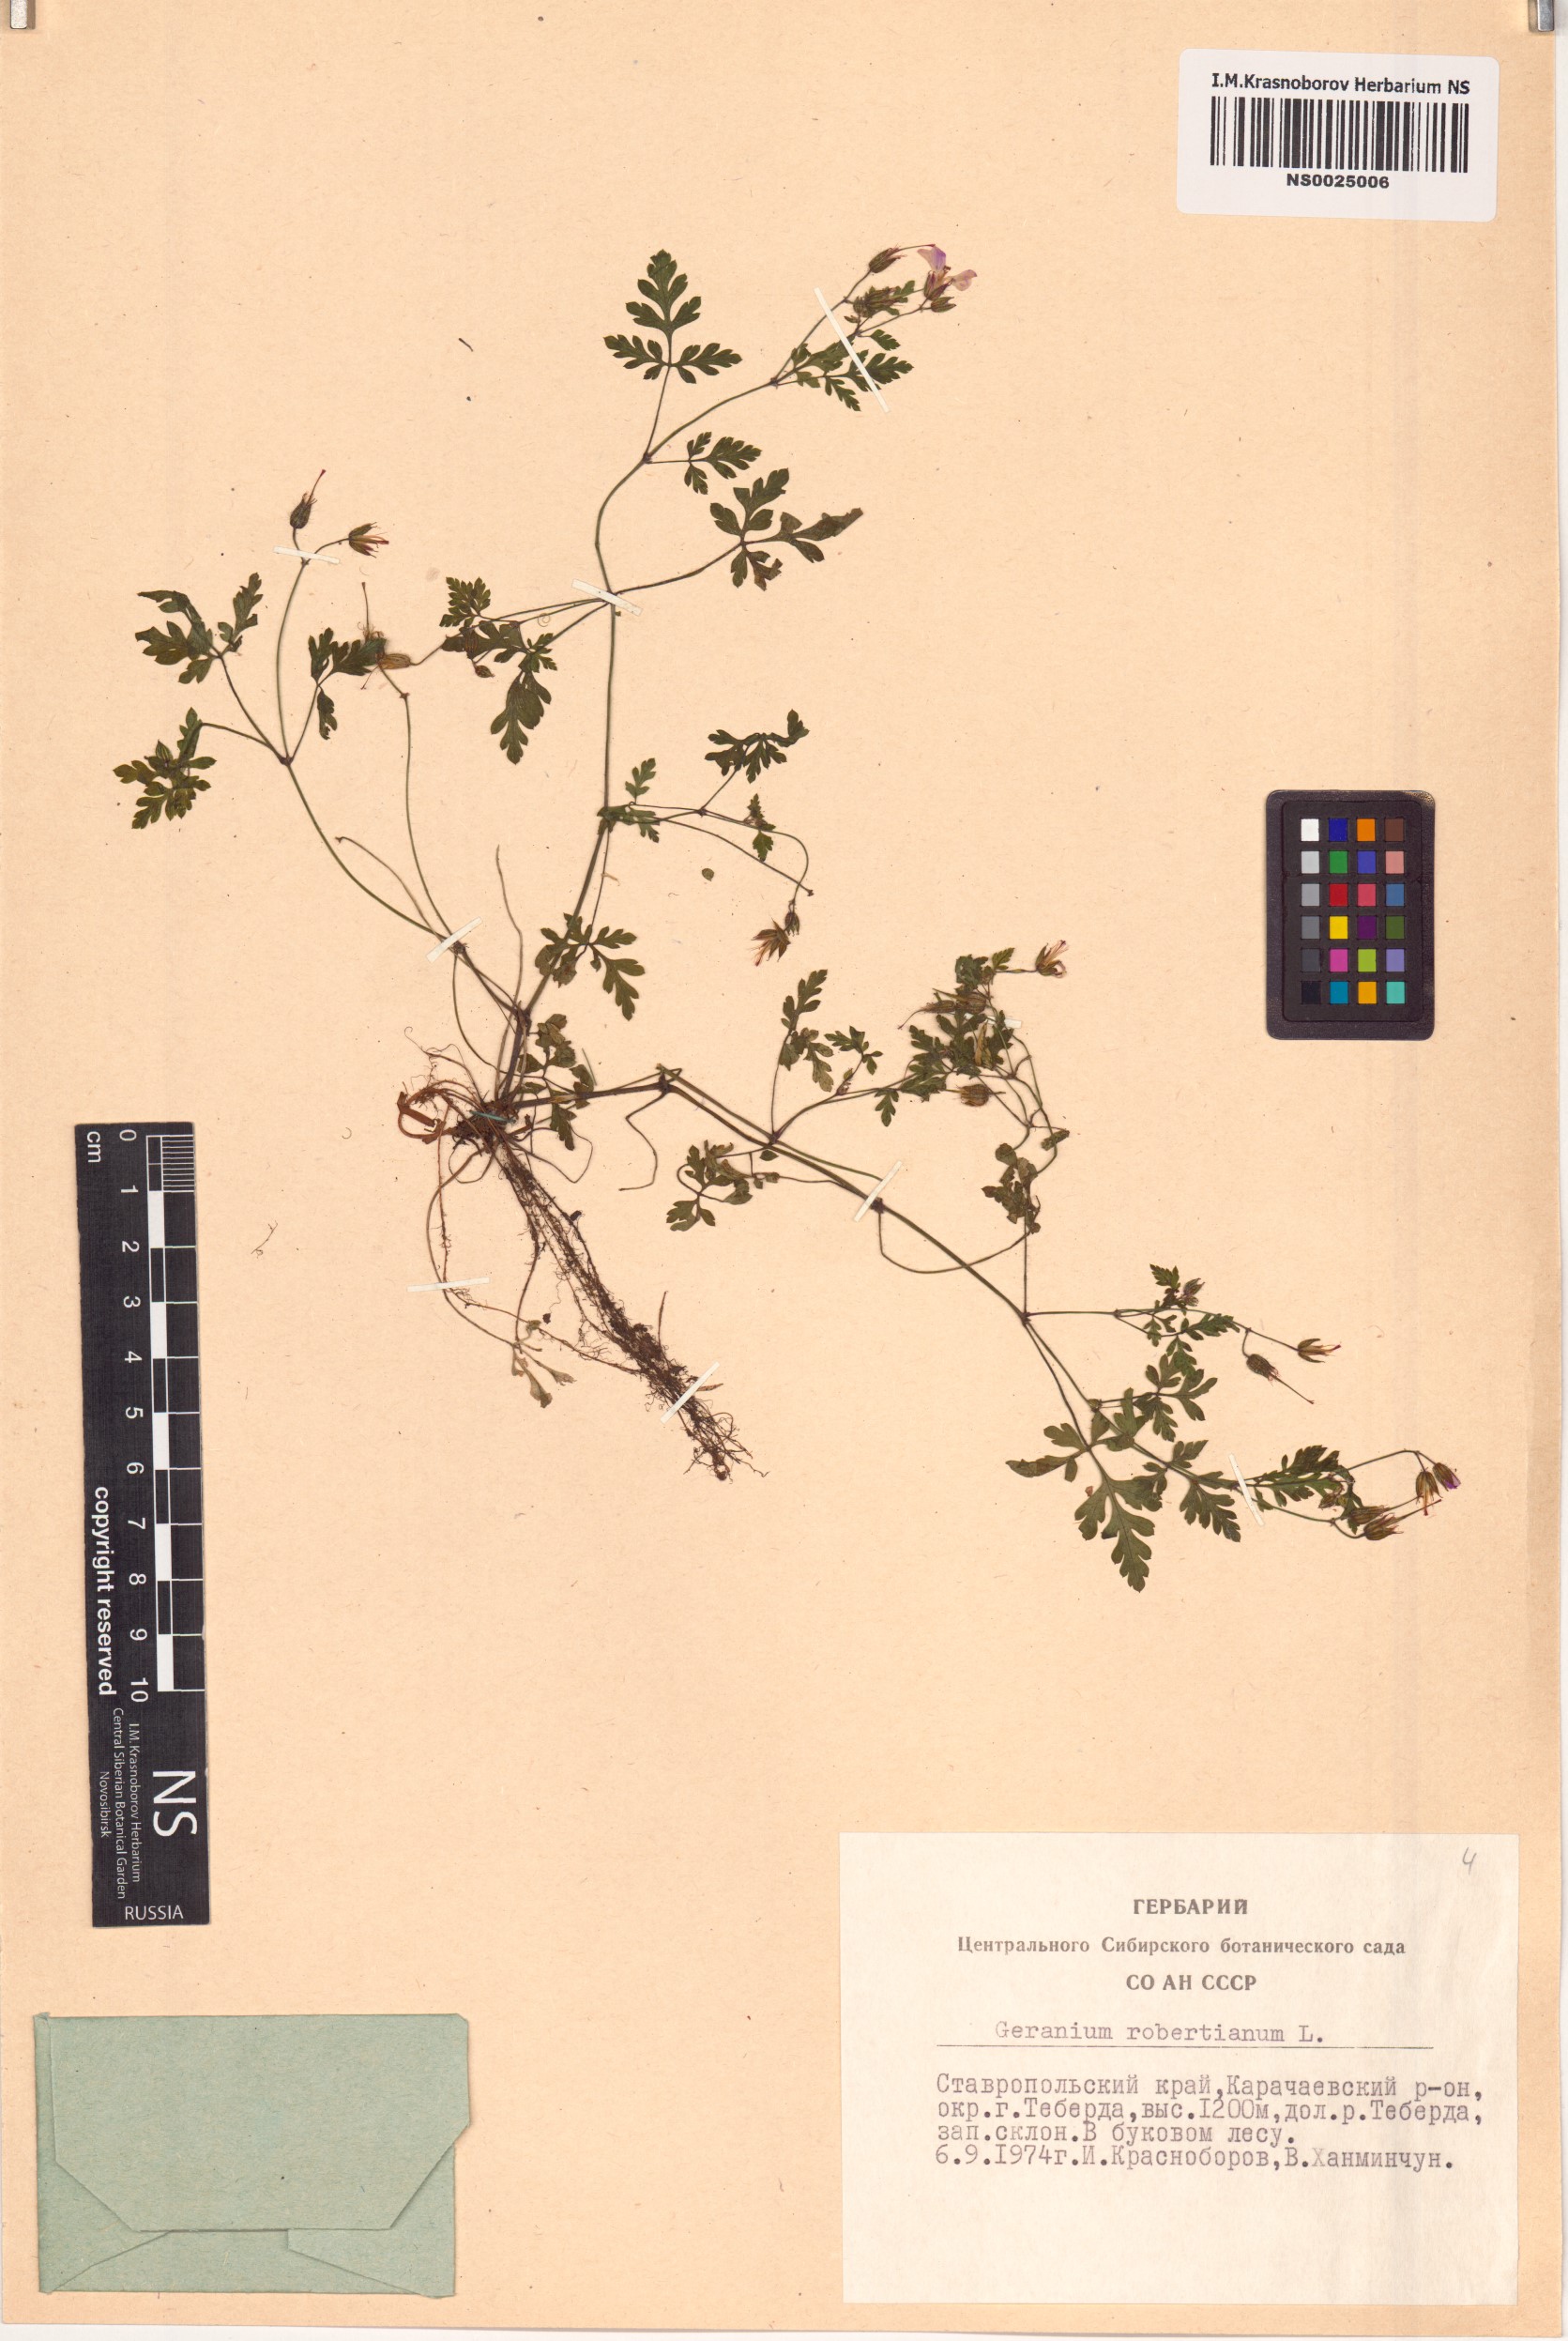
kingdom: Plantae
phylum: Tracheophyta
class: Magnoliopsida
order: Geraniales
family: Geraniaceae
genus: Geranium
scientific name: Geranium robertianum
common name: Herb-robert
